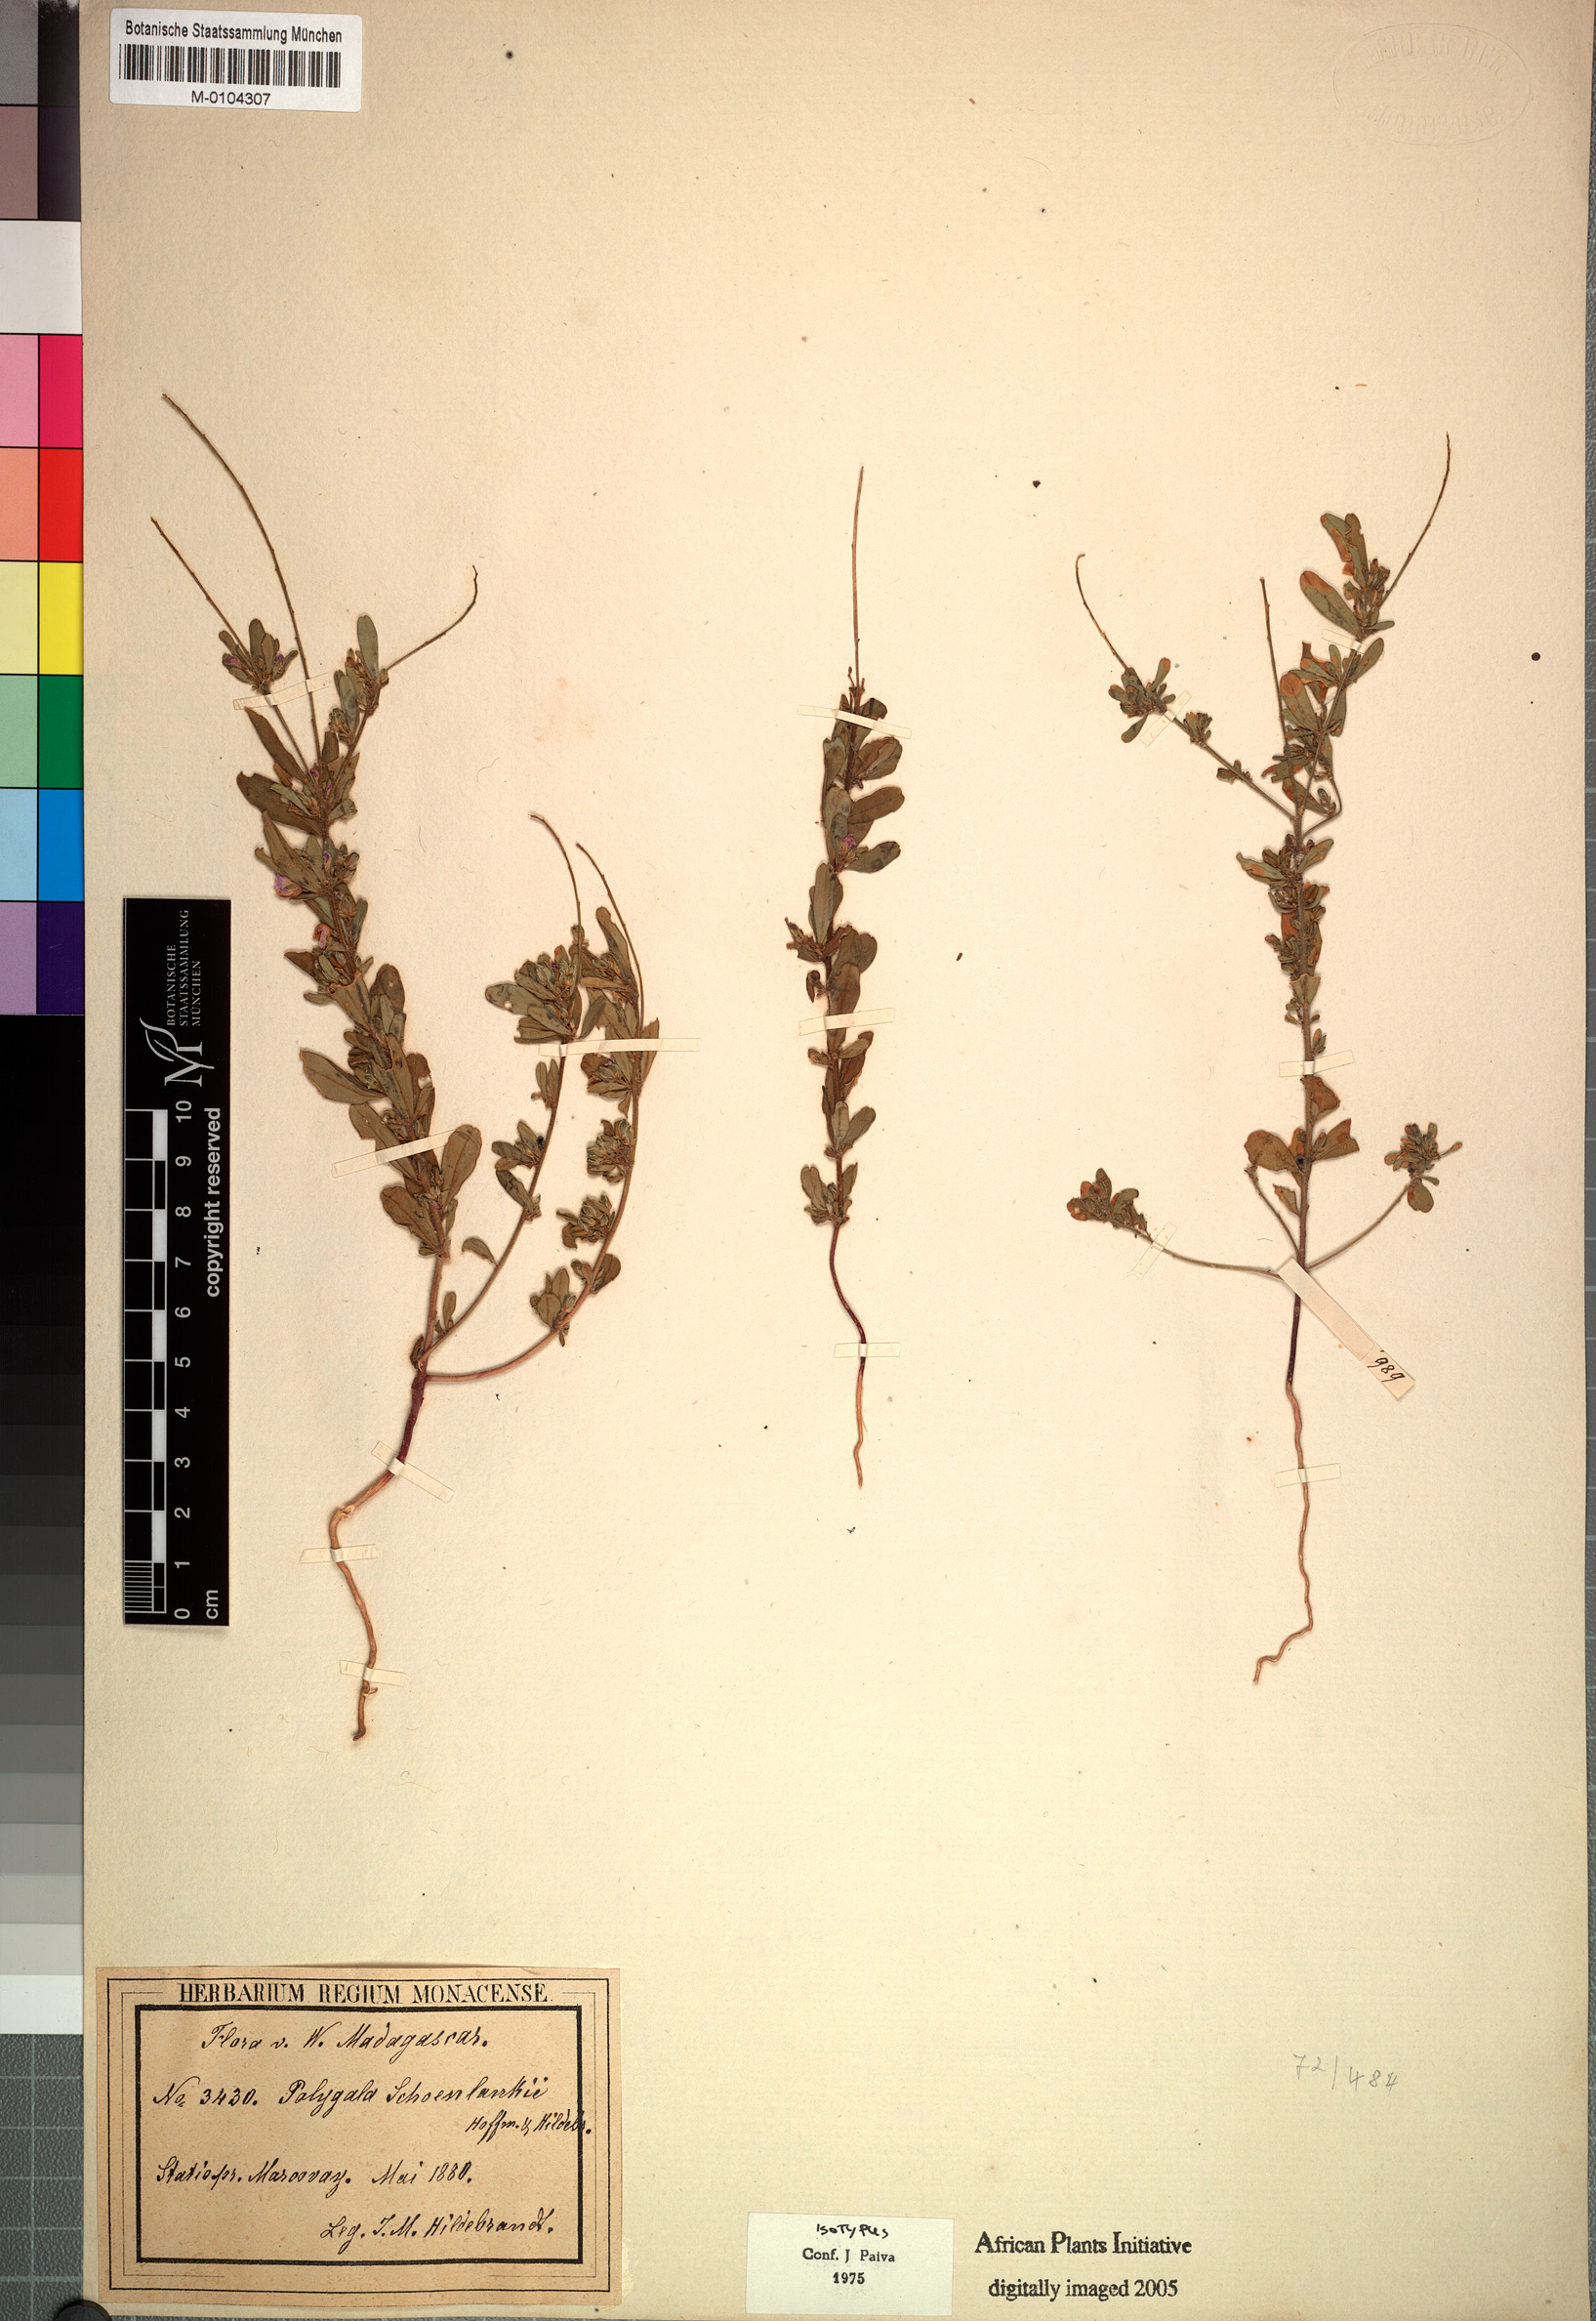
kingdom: Plantae
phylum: Tracheophyta
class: Magnoliopsida
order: Fabales
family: Polygalaceae
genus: Polygala
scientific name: Polygala schoenlankii
